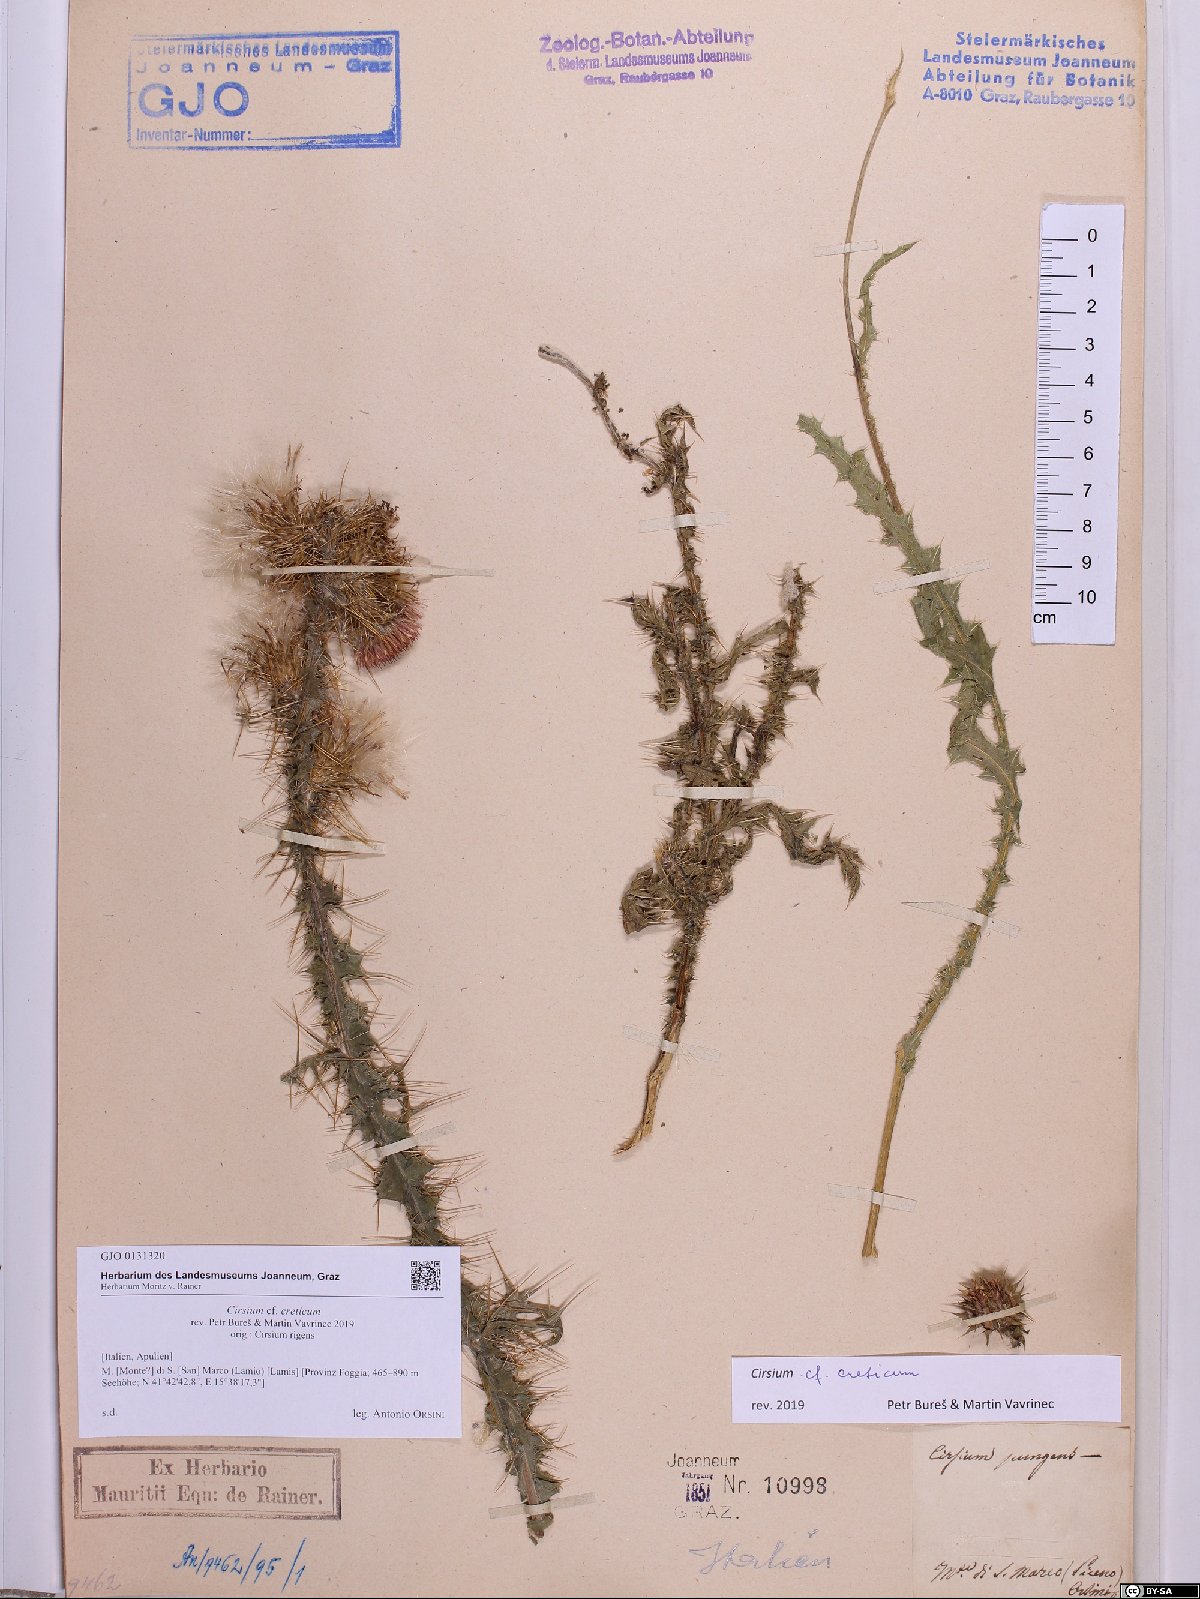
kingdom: Plantae
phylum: Tracheophyta
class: Magnoliopsida
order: Asterales
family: Asteraceae
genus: Cirsium
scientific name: Cirsium creticum
